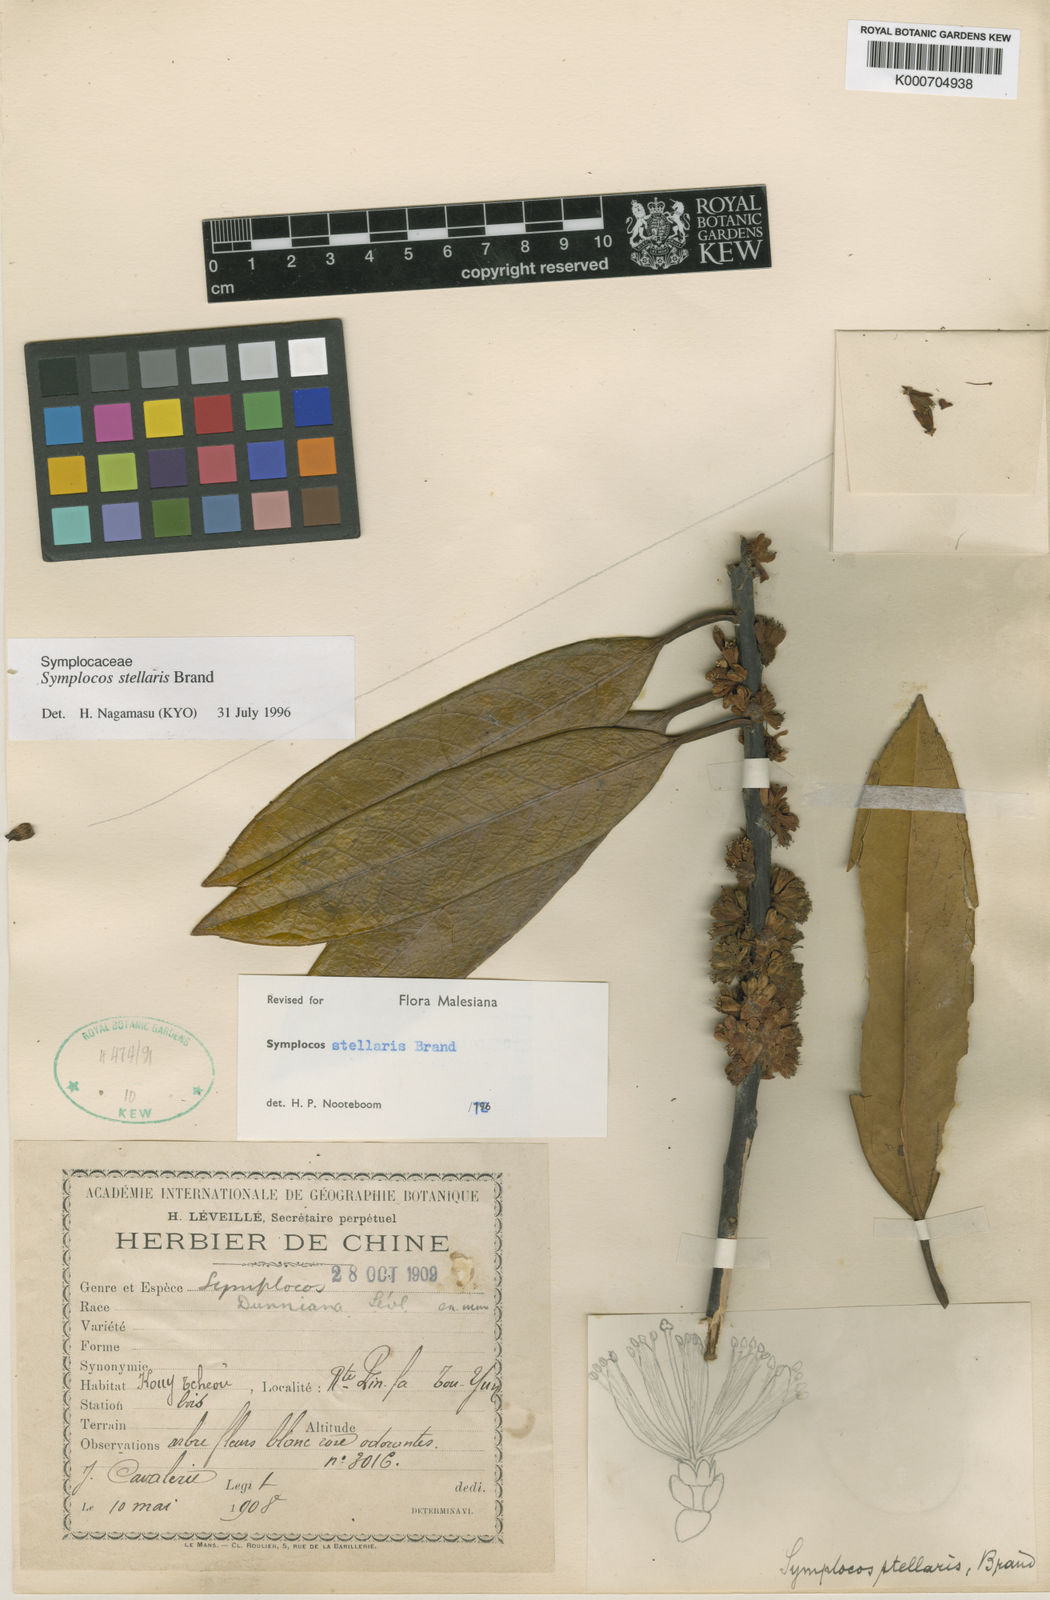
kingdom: Plantae
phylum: Tracheophyta
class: Magnoliopsida
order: Ericales
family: Symplocaceae
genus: Symplocos
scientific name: Symplocos glauca
